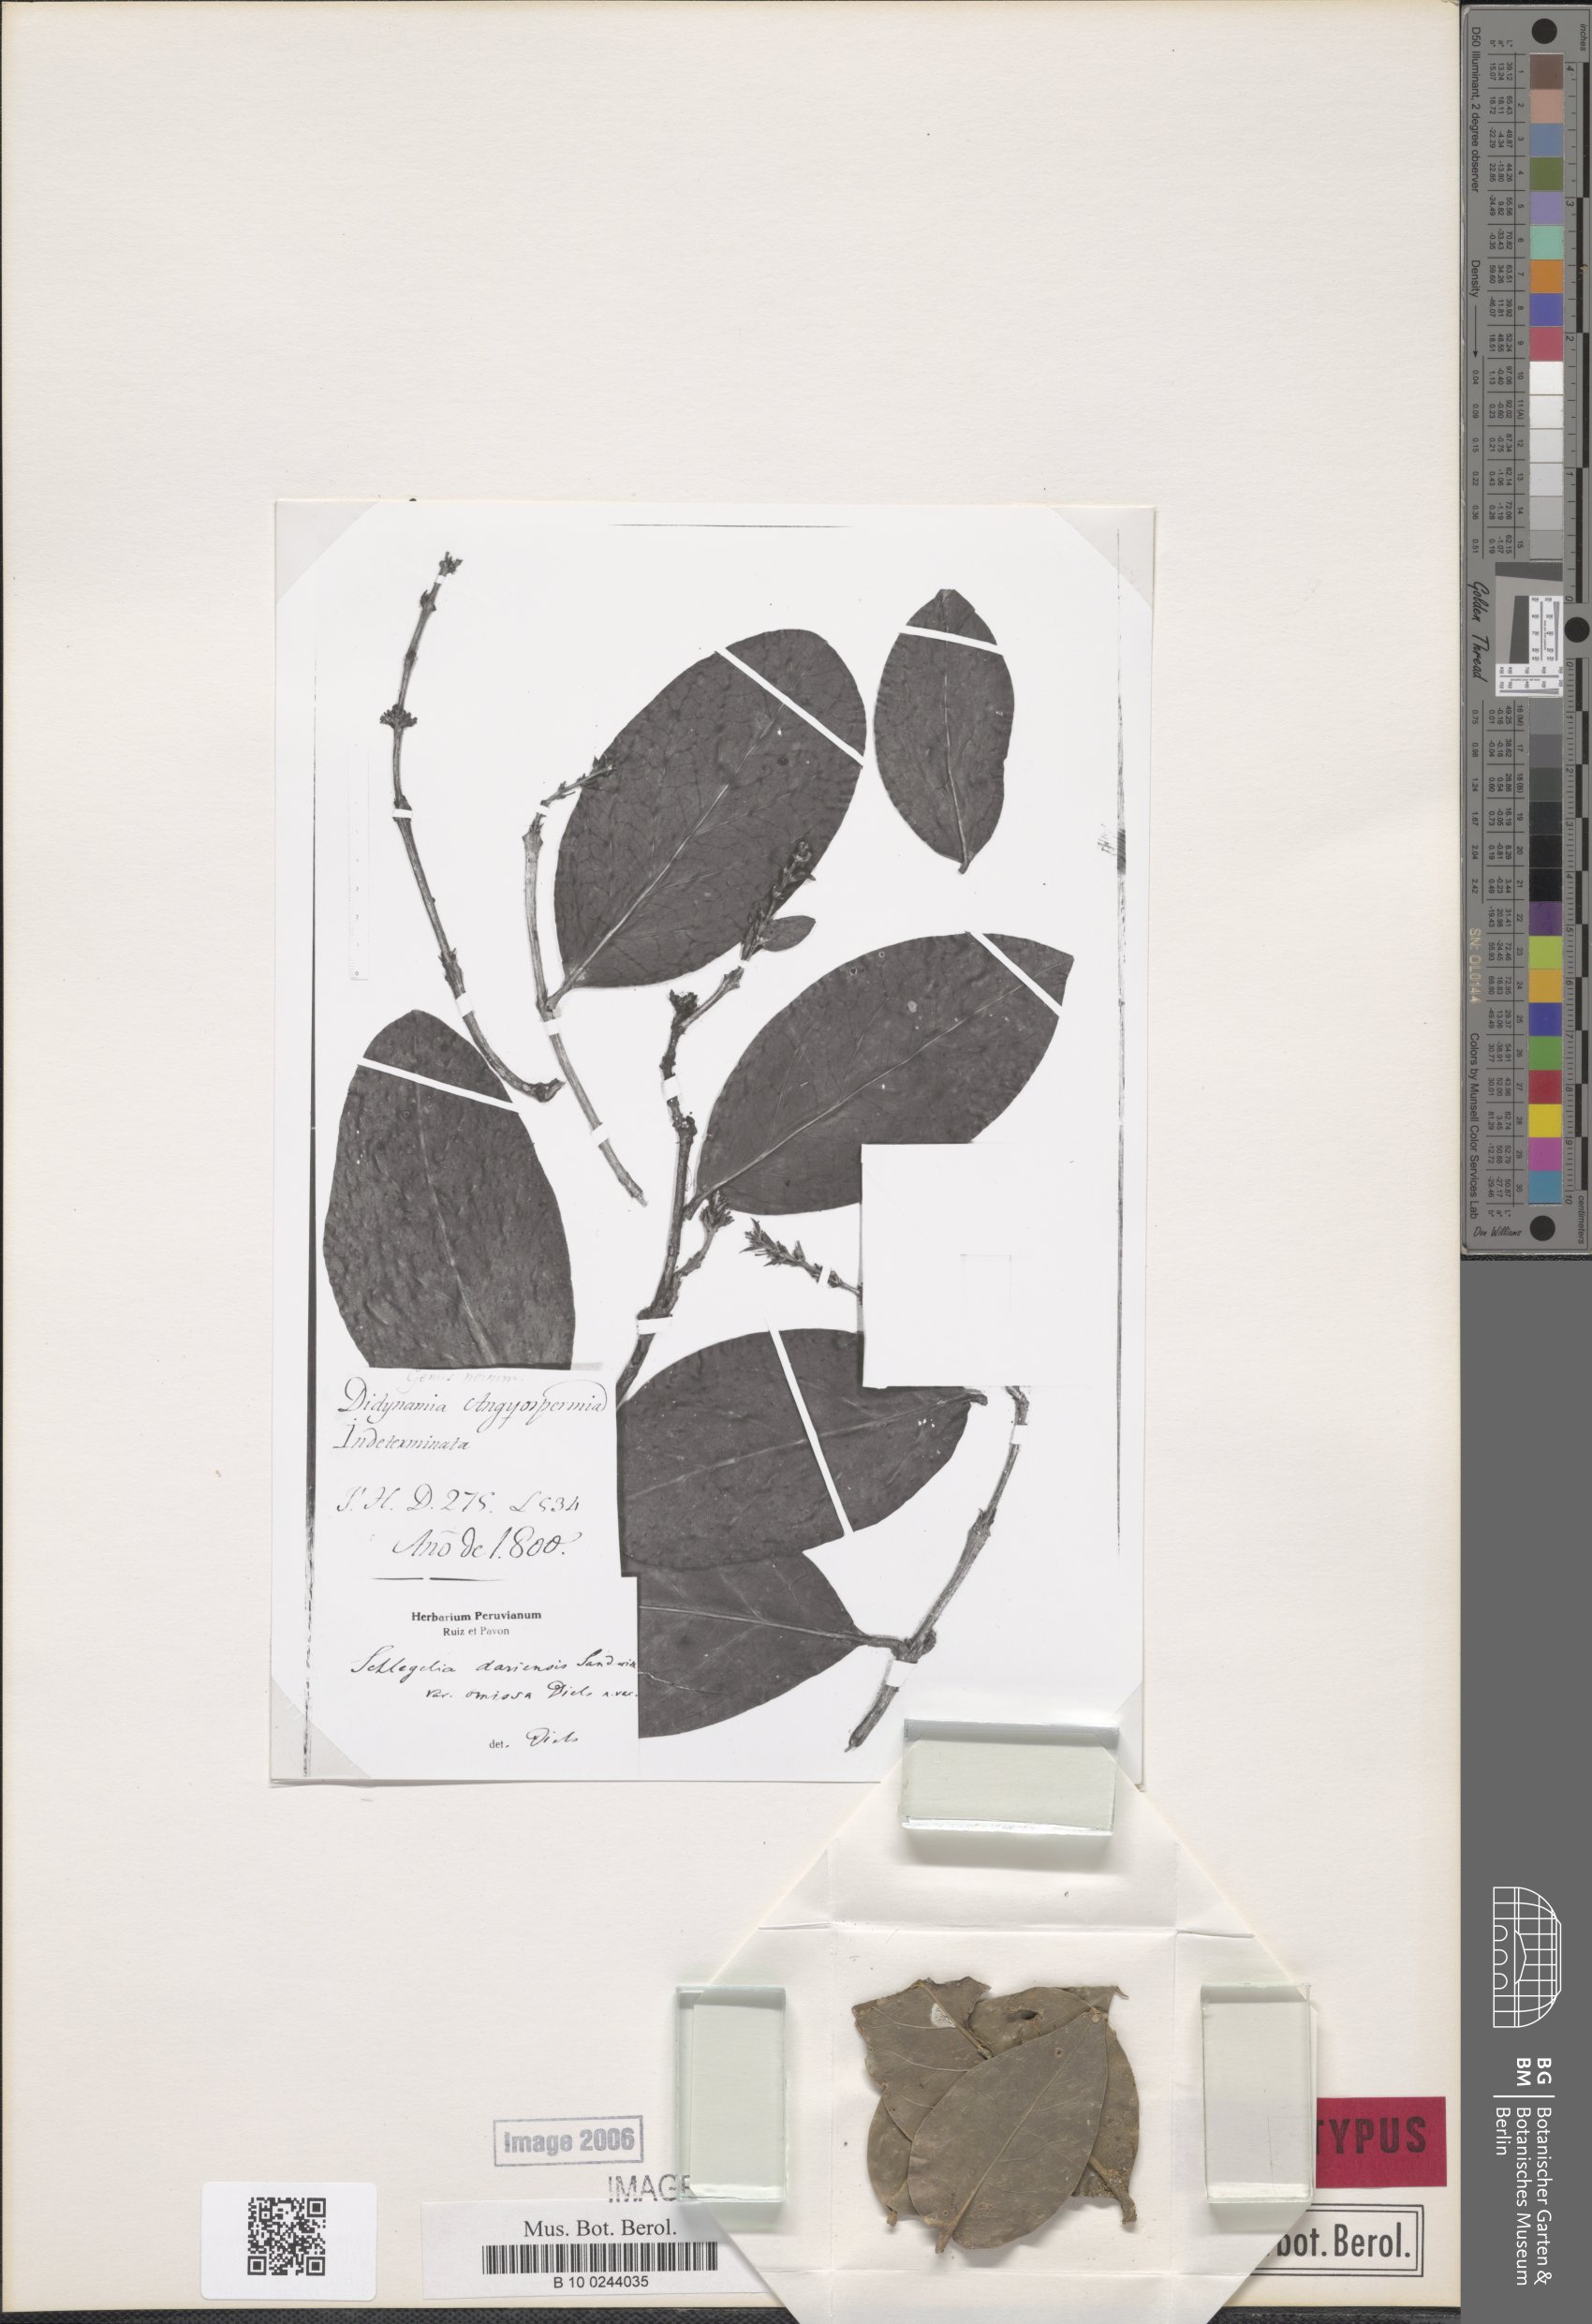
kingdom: Plantae
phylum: Tracheophyta
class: Magnoliopsida
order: Lamiales
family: Schlegeliaceae
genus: Schlegelia
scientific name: Schlegelia darienensis
